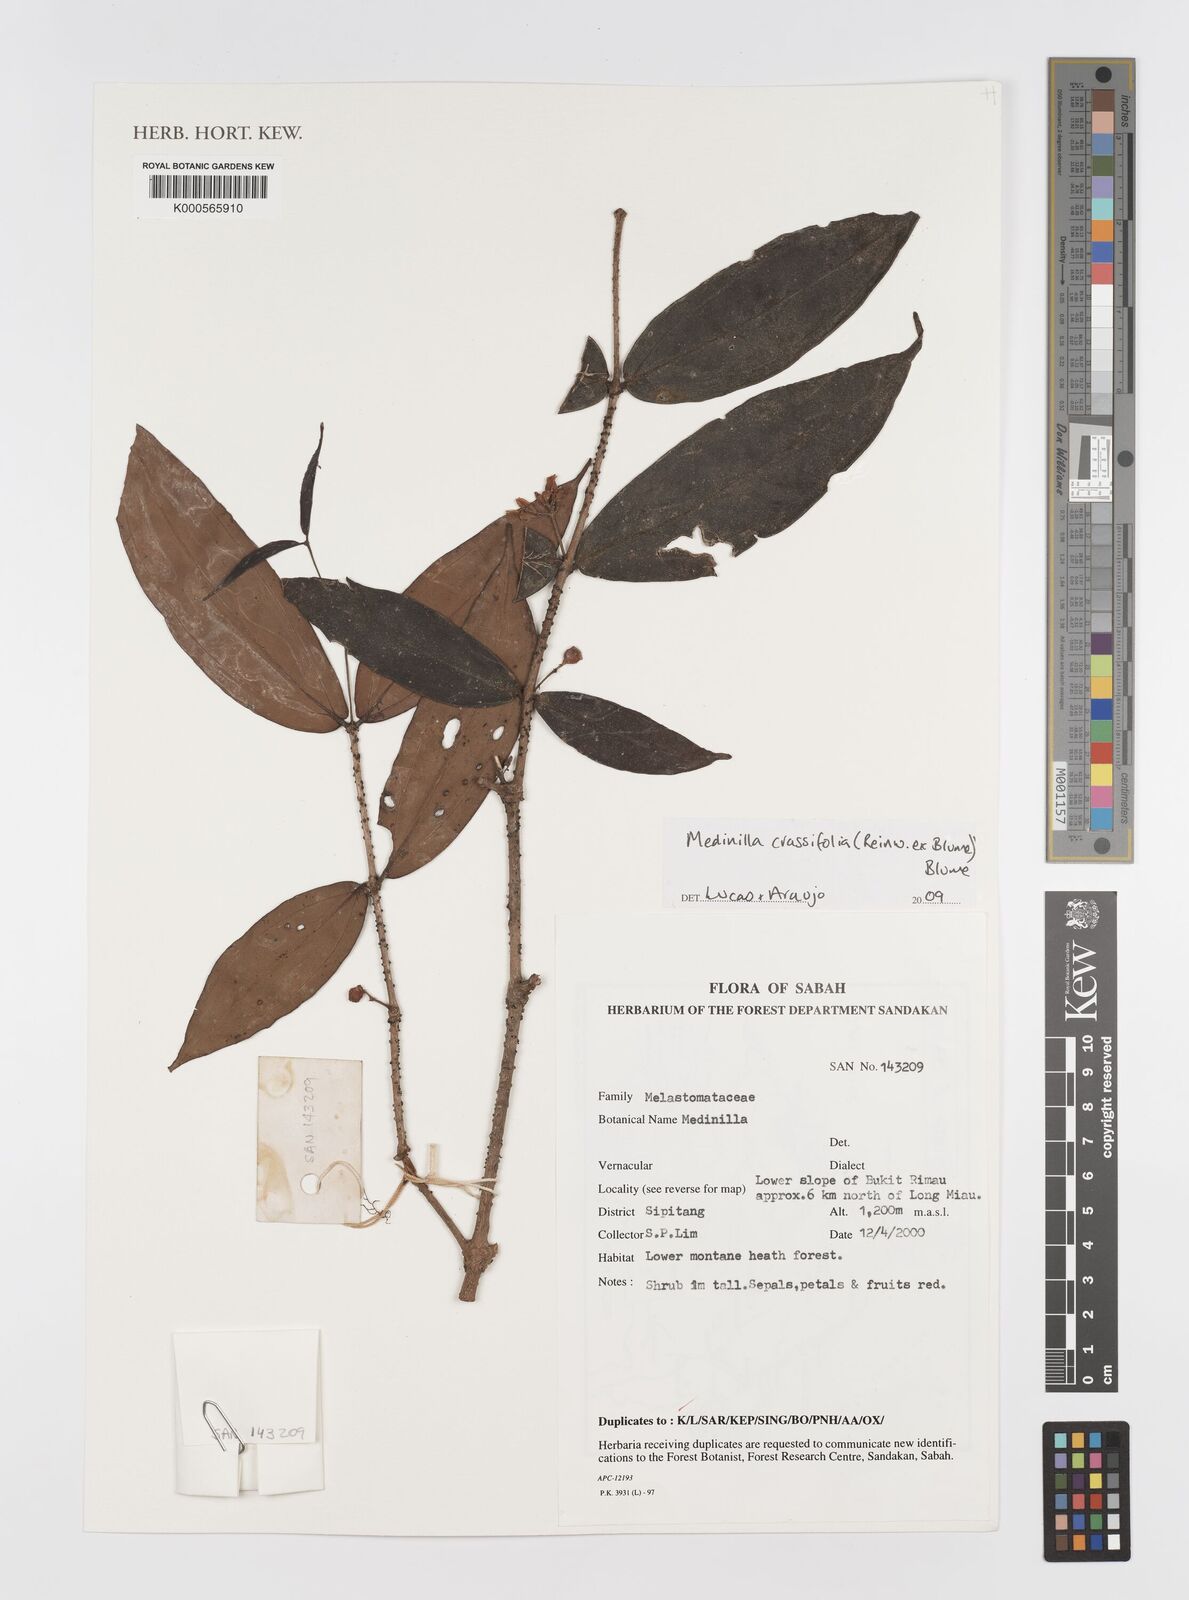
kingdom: Plantae
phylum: Tracheophyta
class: Magnoliopsida
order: Myrtales
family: Melastomataceae
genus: Medinilla
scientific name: Medinilla crassifolia
